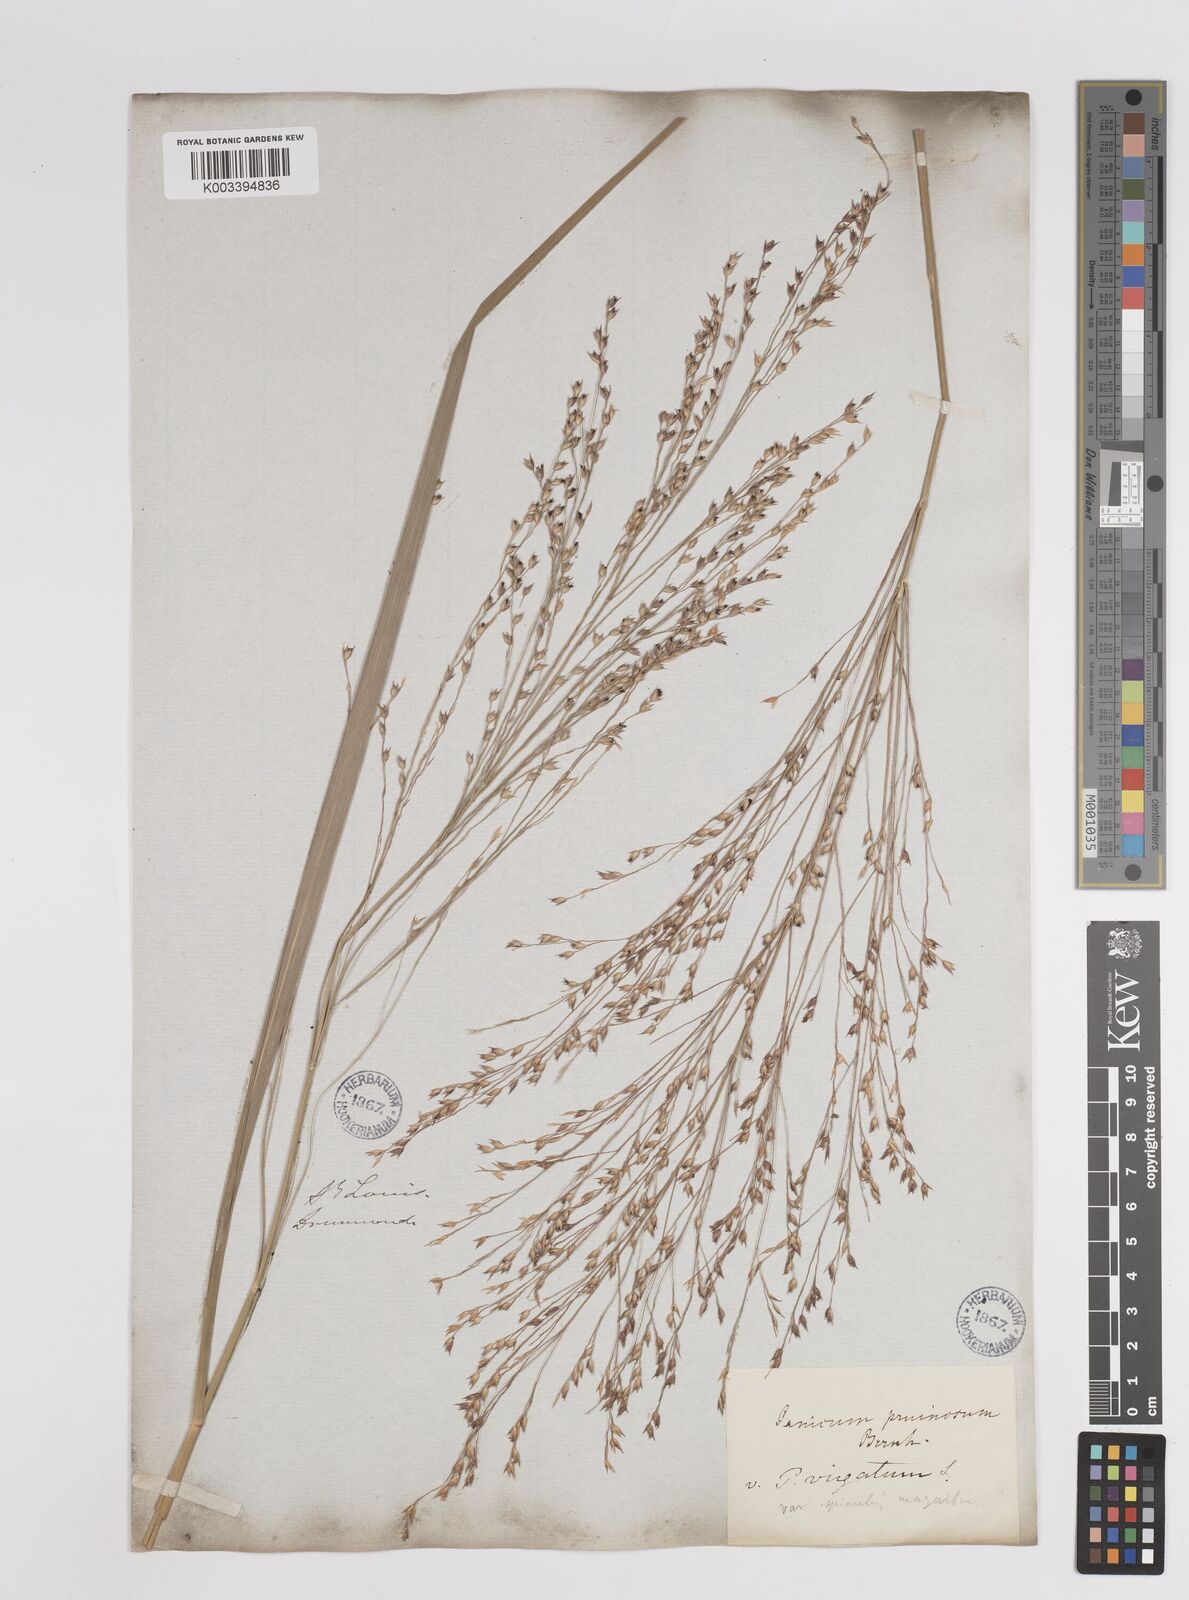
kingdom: Plantae
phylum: Tracheophyta
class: Liliopsida
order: Poales
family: Poaceae
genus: Panicum
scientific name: Panicum virgatum
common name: Switchgrass
